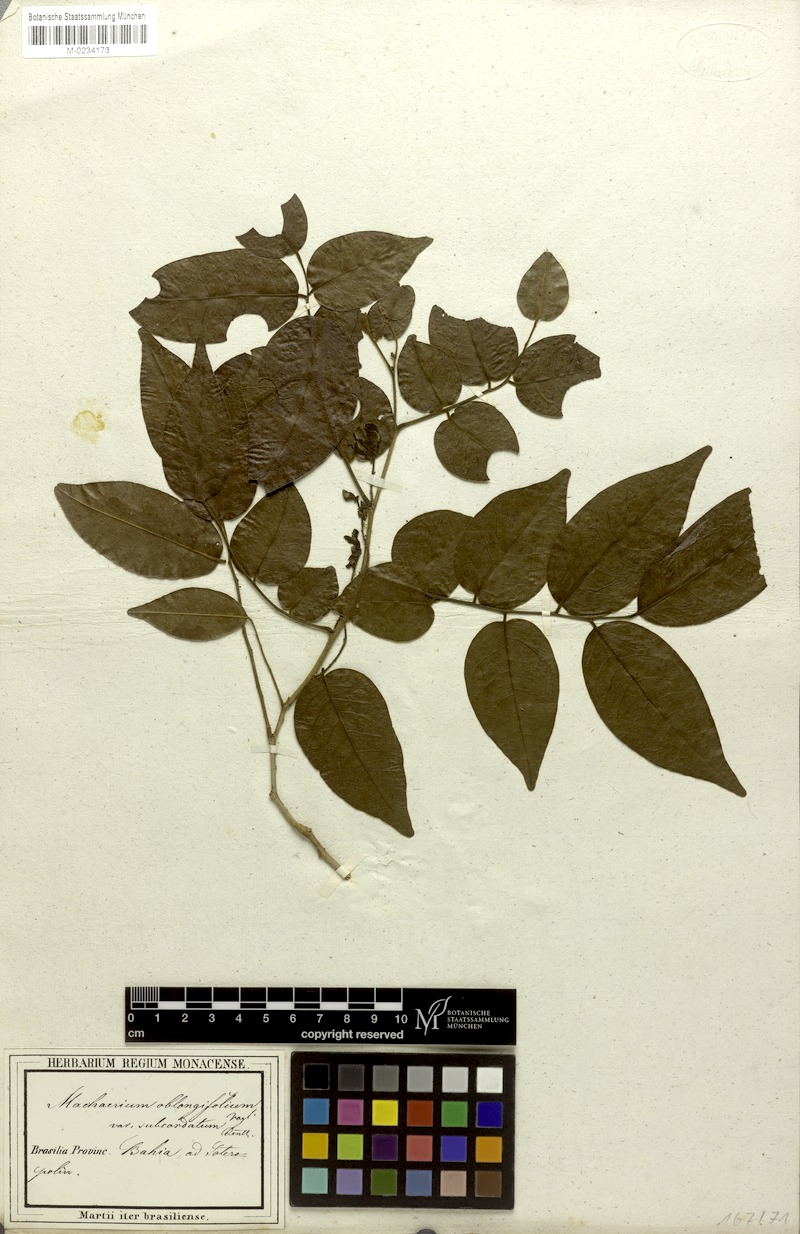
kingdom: Plantae
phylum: Tracheophyta
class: Magnoliopsida
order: Fabales
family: Fabaceae
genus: Machaerium
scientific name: Machaerium punctatum
